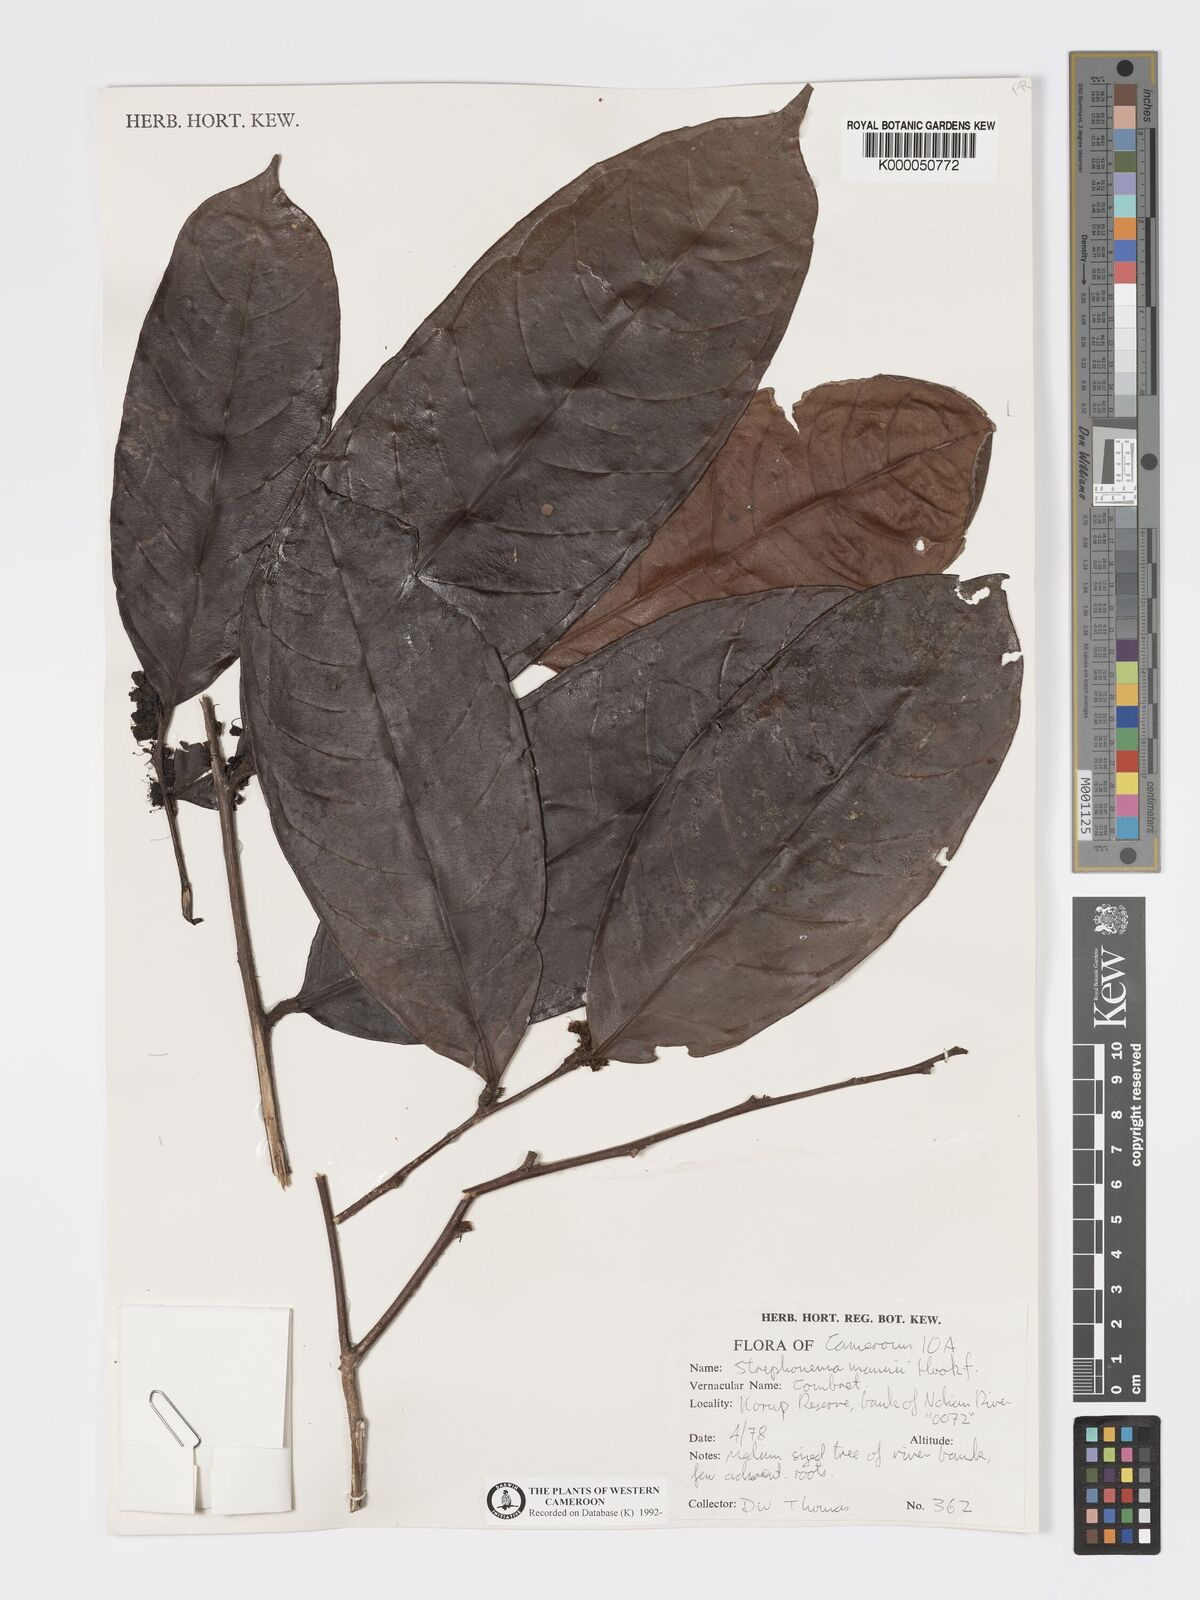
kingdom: Plantae
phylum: Tracheophyta
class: Magnoliopsida
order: Myrtales
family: Combretaceae
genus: Strephonema
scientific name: Strephonema mannii
